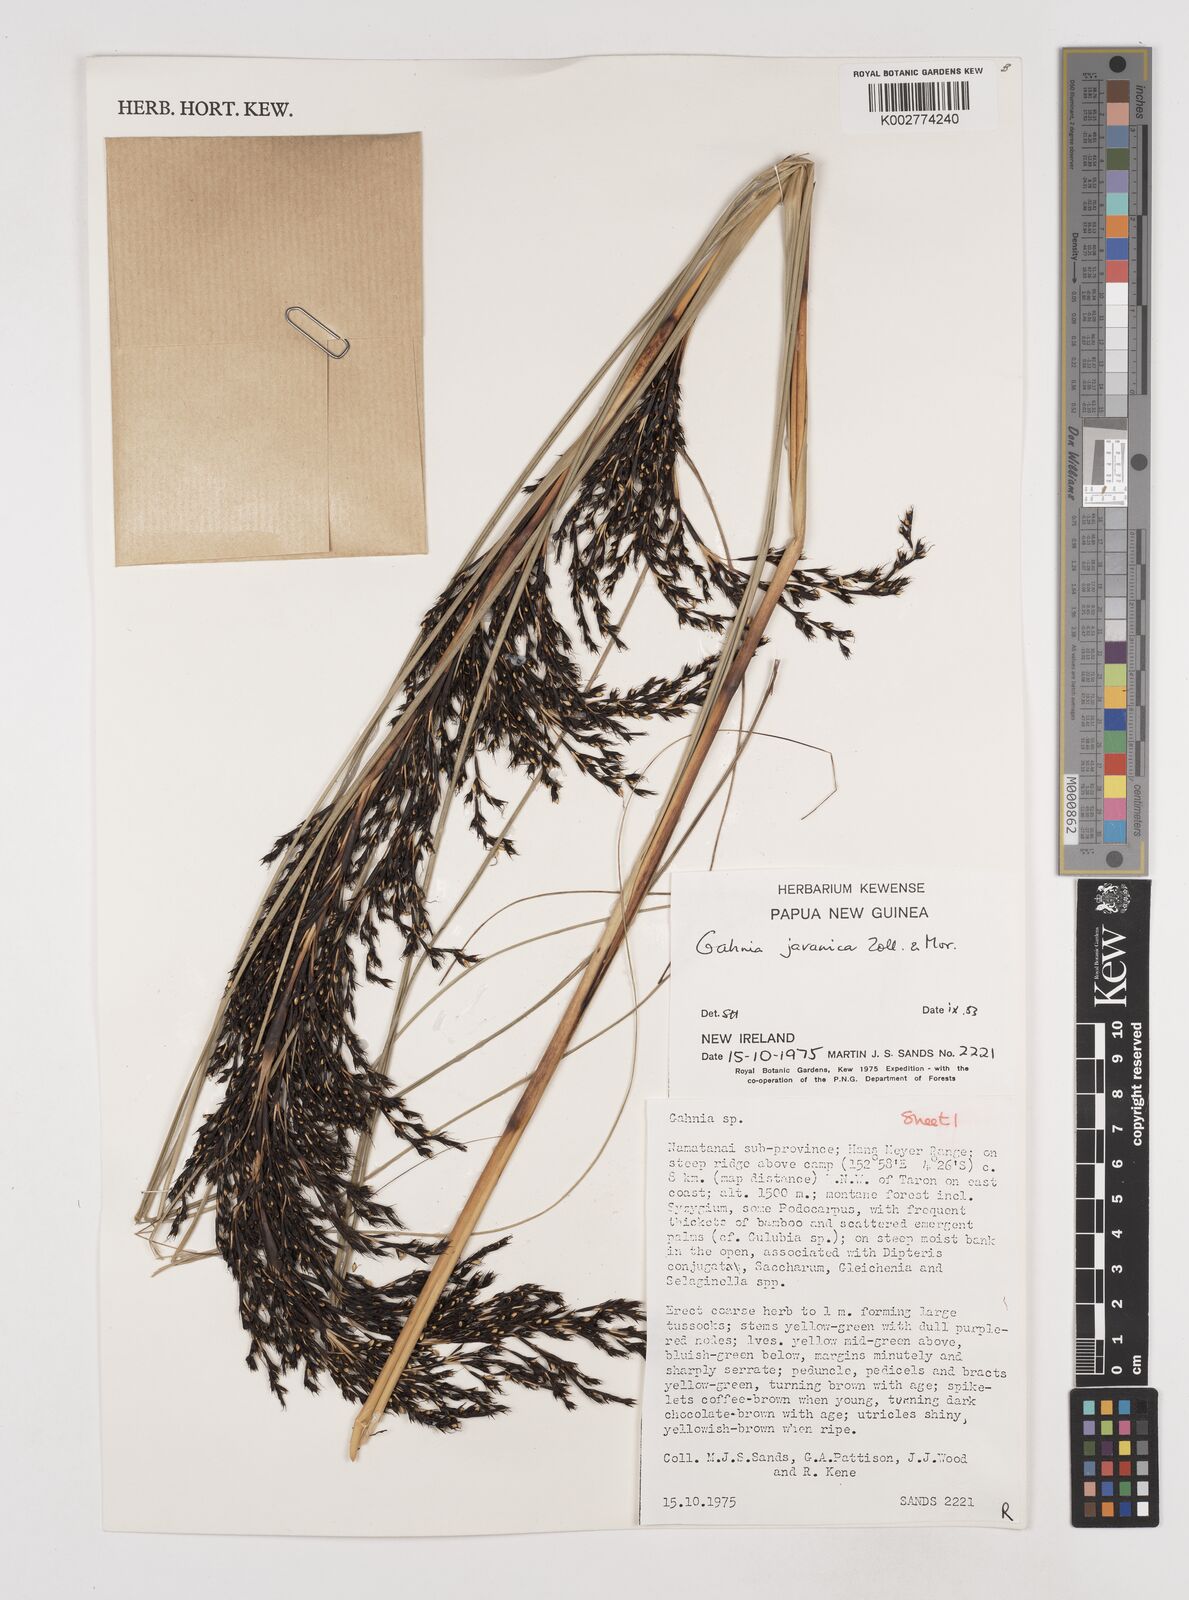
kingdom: Plantae
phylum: Tracheophyta
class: Liliopsida
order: Poales
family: Cyperaceae
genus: Gahnia
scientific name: Gahnia javanica
